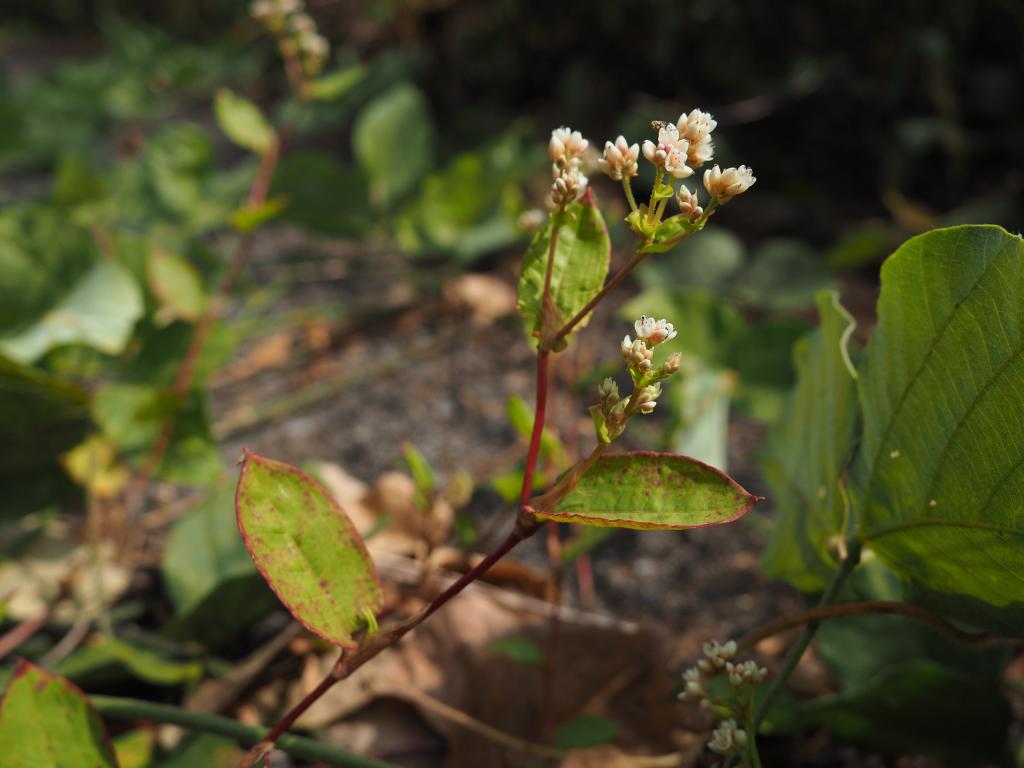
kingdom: Plantae
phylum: Tracheophyta
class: Magnoliopsida
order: Caryophyllales
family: Polygonaceae
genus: Persicaria
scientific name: Persicaria chinensis
